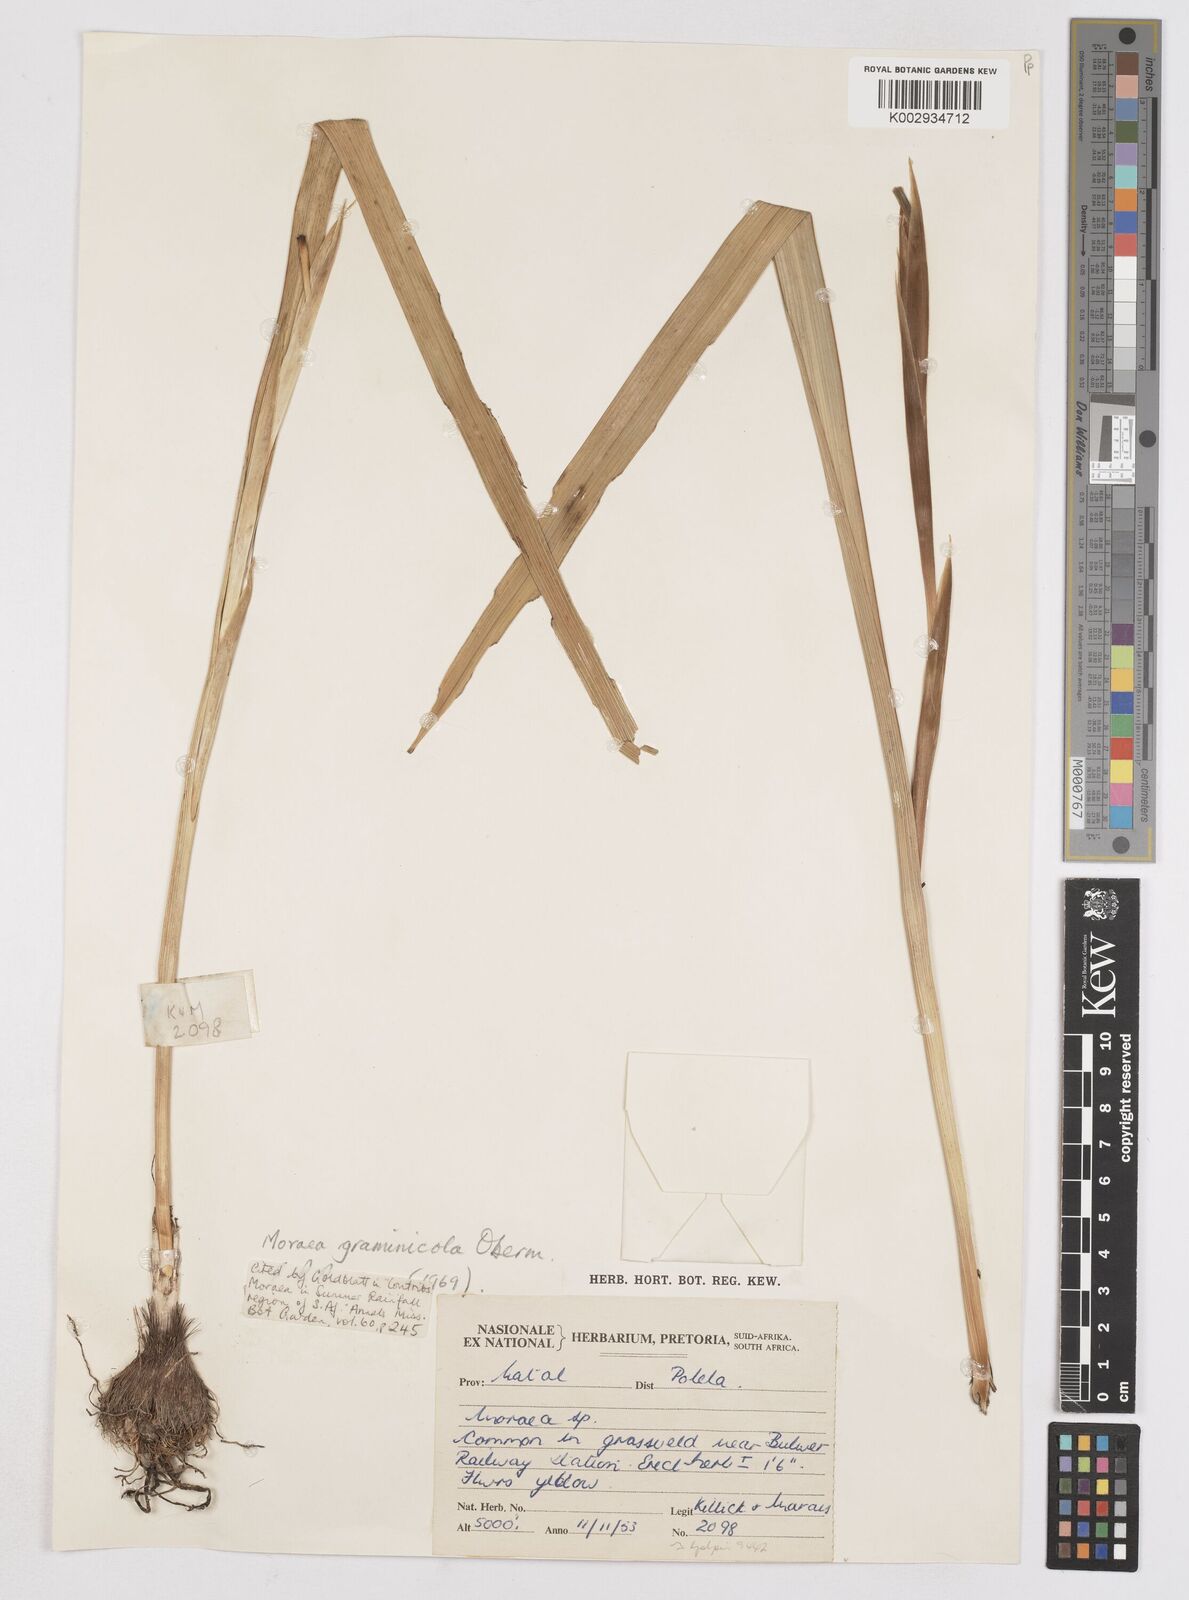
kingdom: Plantae
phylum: Tracheophyta
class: Liliopsida
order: Asparagales
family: Iridaceae
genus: Moraea
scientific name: Moraea graminicola
